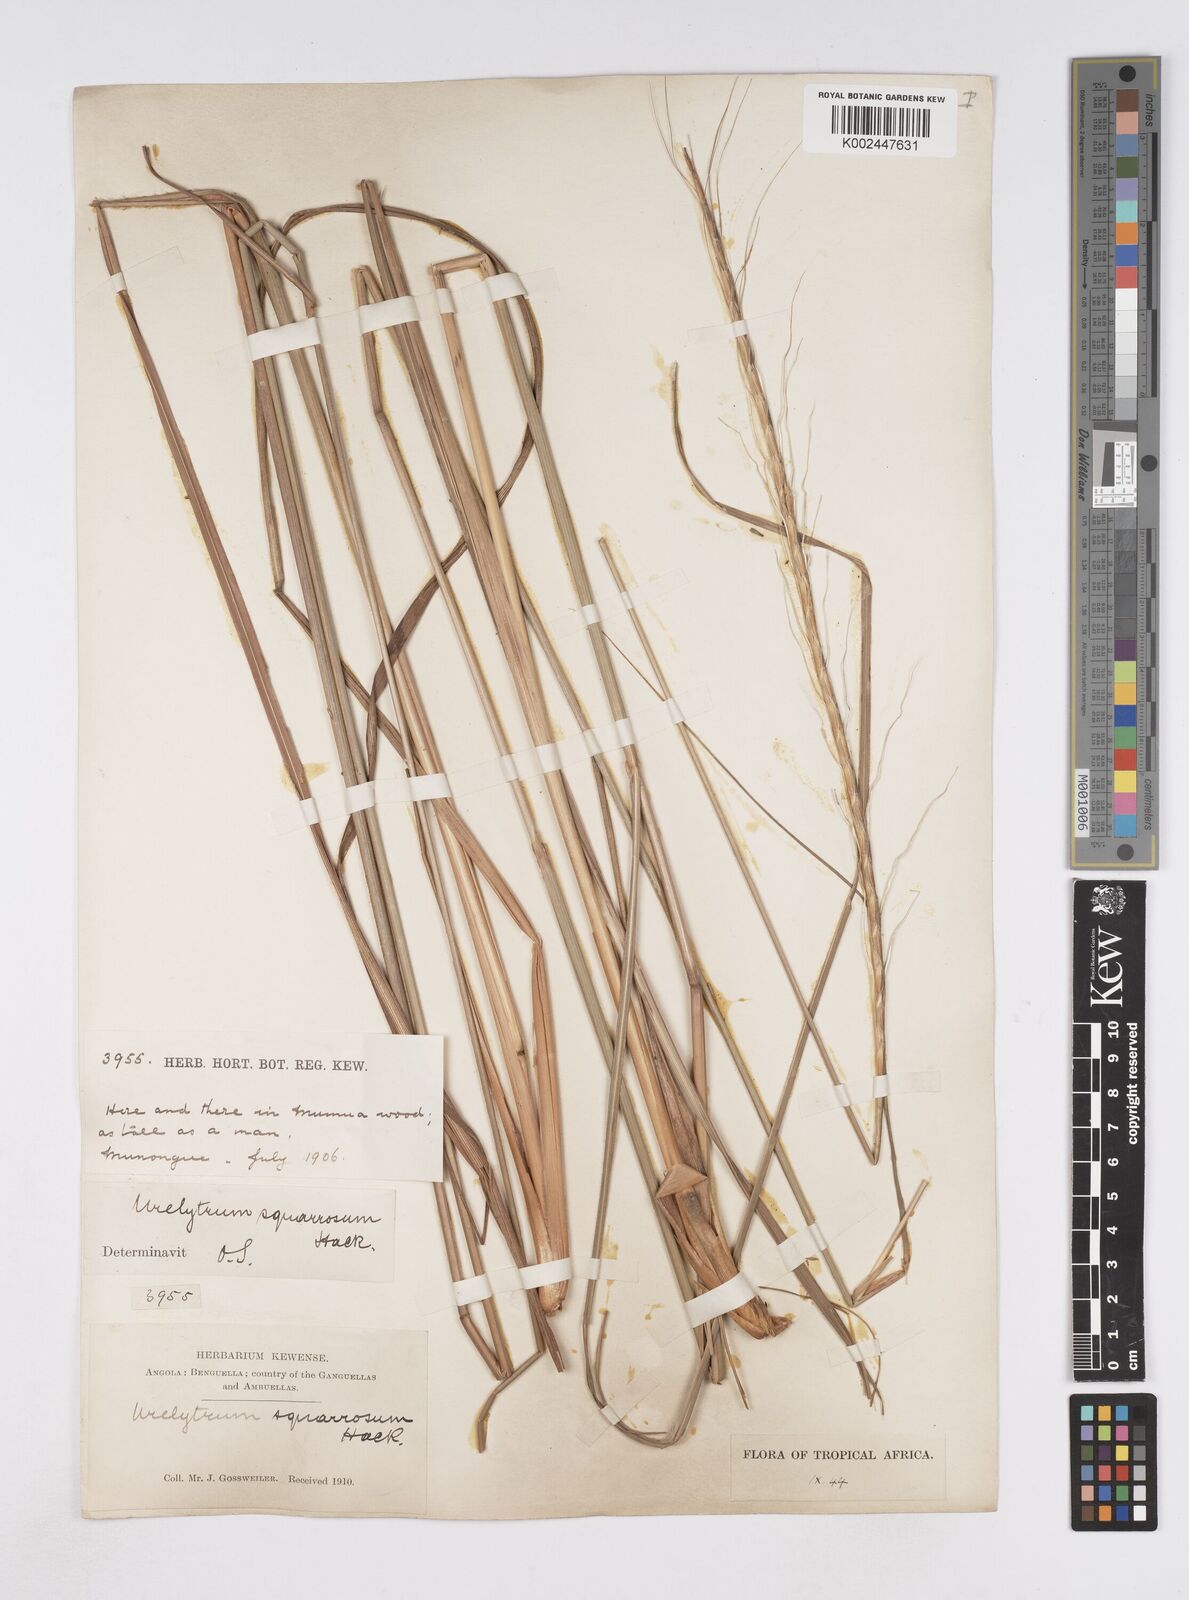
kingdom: Plantae
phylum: Tracheophyta
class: Liliopsida
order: Poales
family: Poaceae
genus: Urelytrum
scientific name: Urelytrum agropyroides
